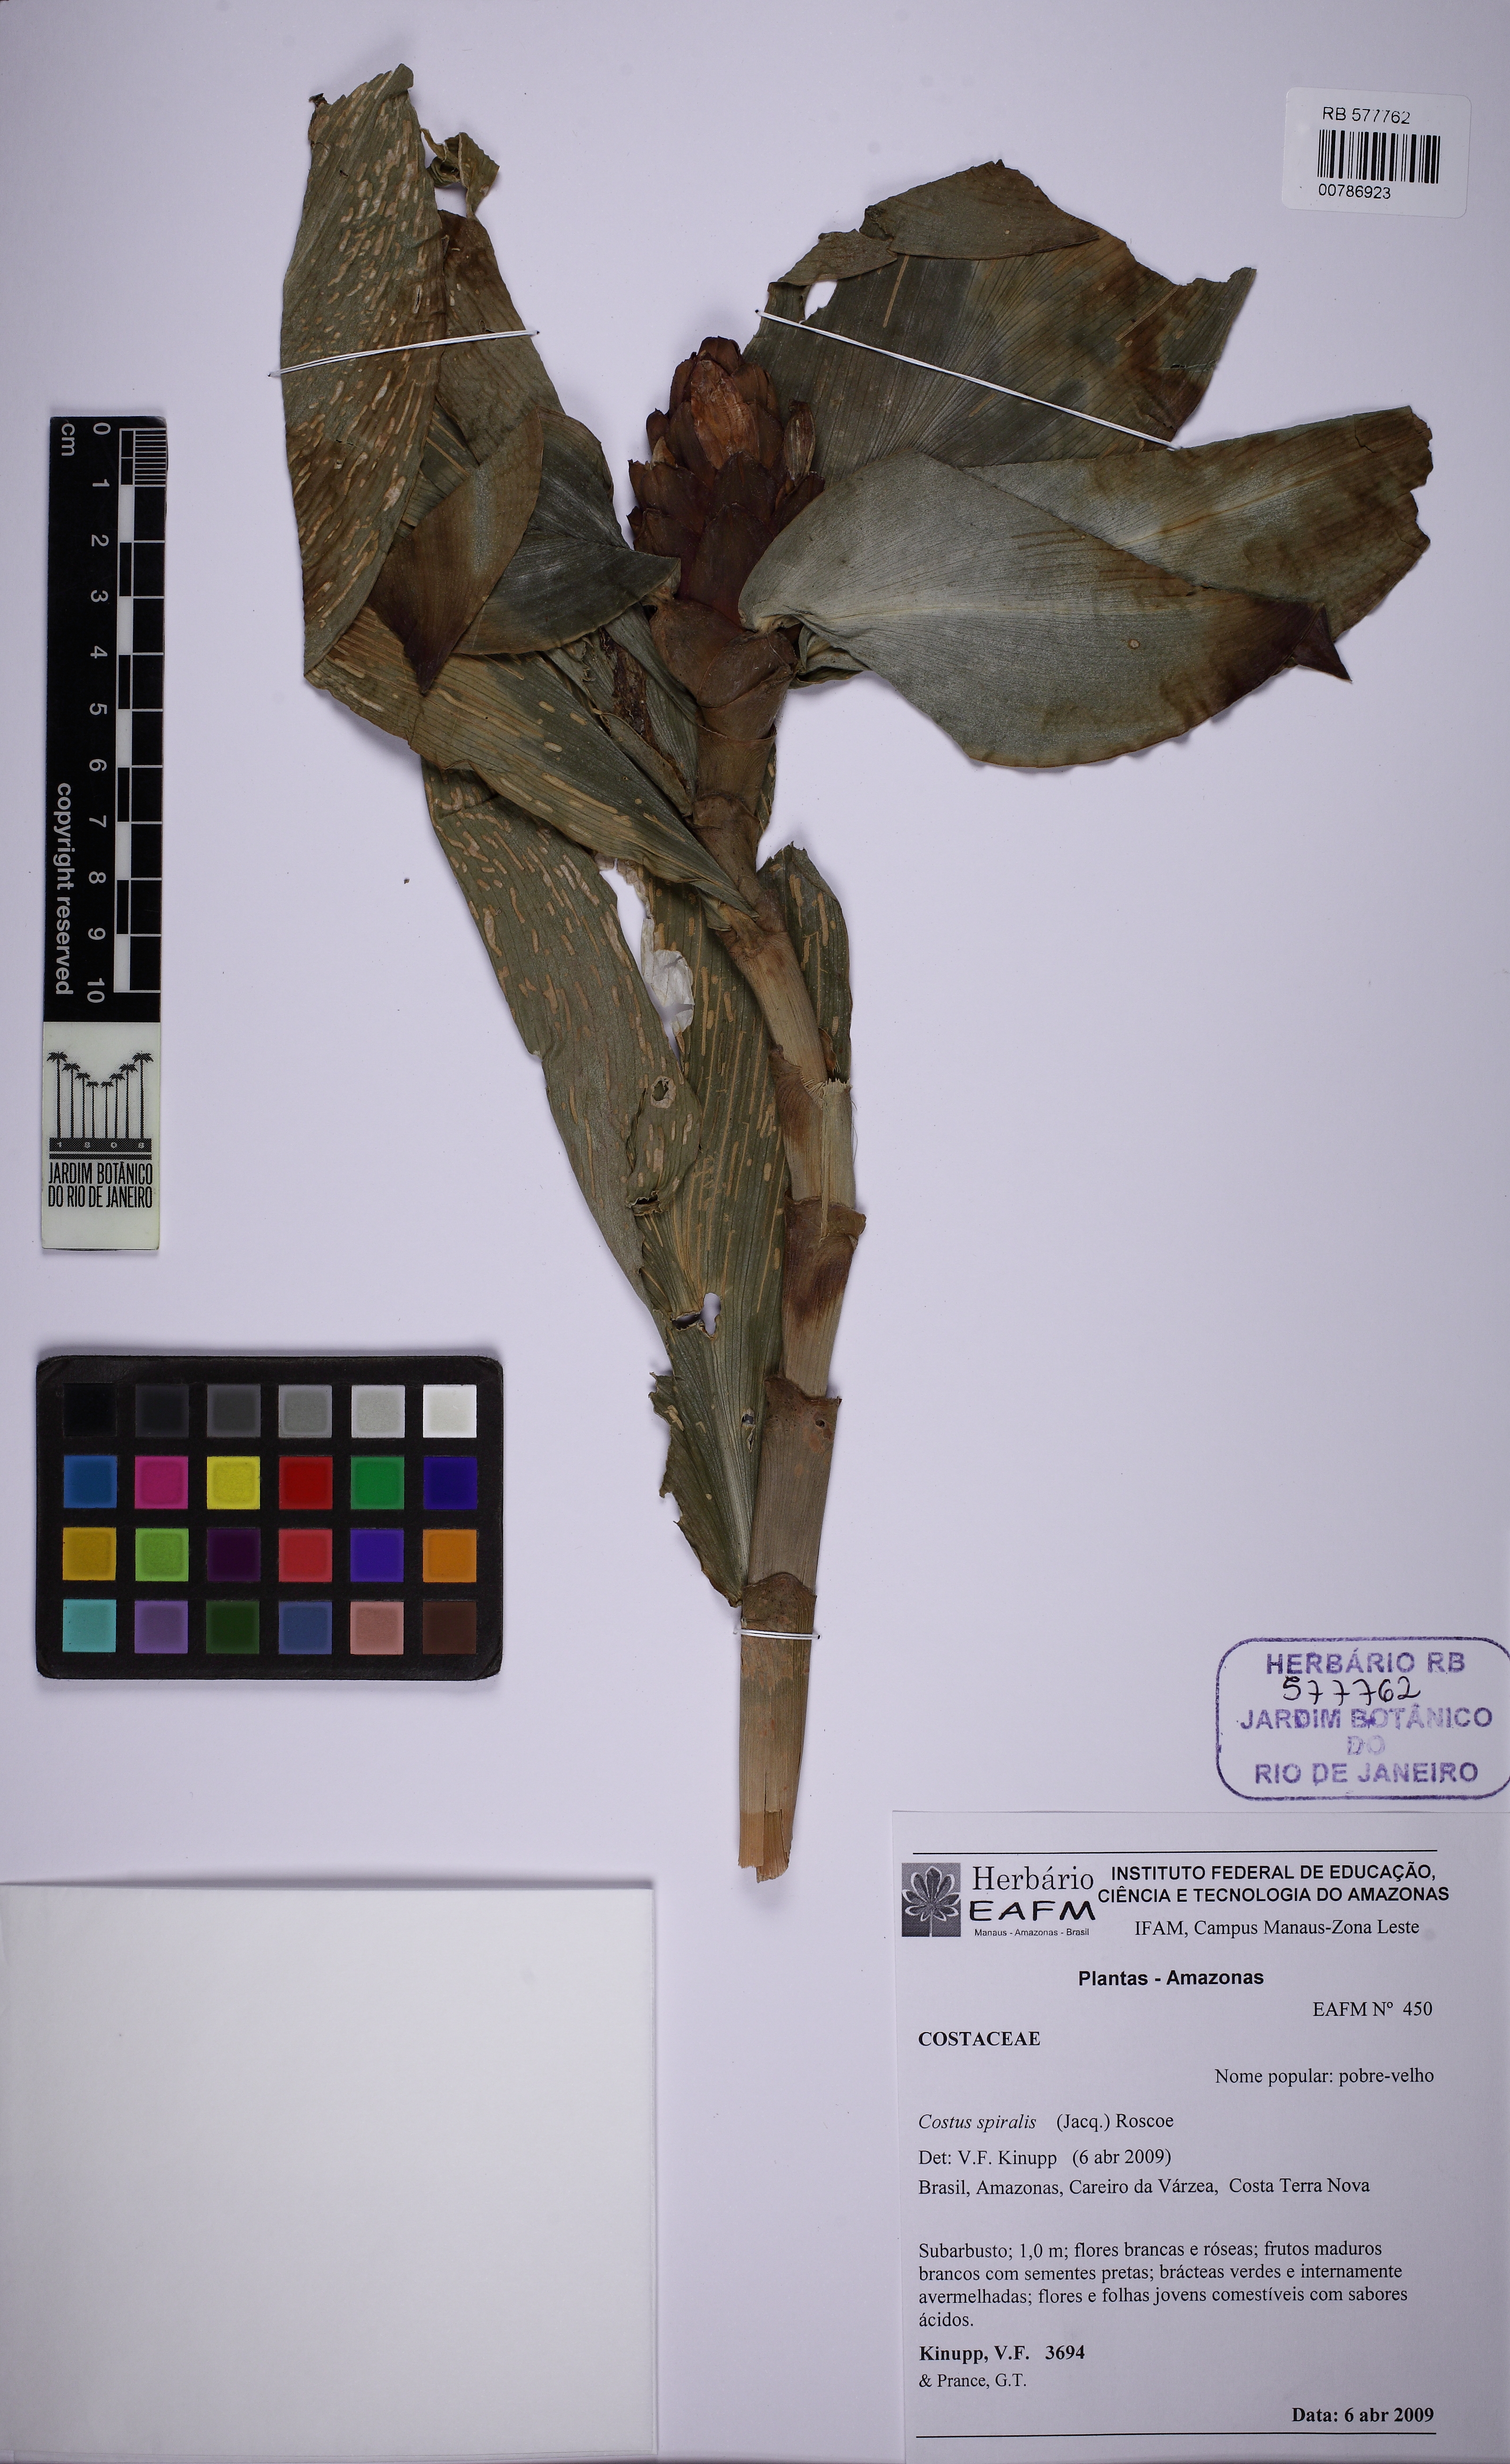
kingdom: Plantae
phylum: Tracheophyta
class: Liliopsida
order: Zingiberales
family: Costaceae
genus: Costus
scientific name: Costus spiralis
